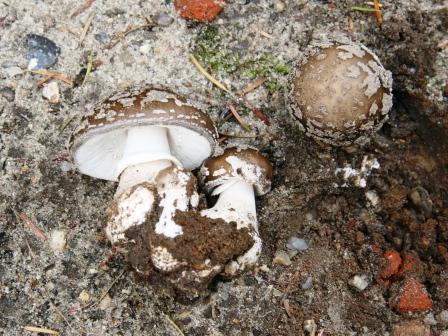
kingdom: Fungi
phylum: Basidiomycota
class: Agaricomycetes
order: Agaricales
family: Amanitaceae
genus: Amanita
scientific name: Amanita
